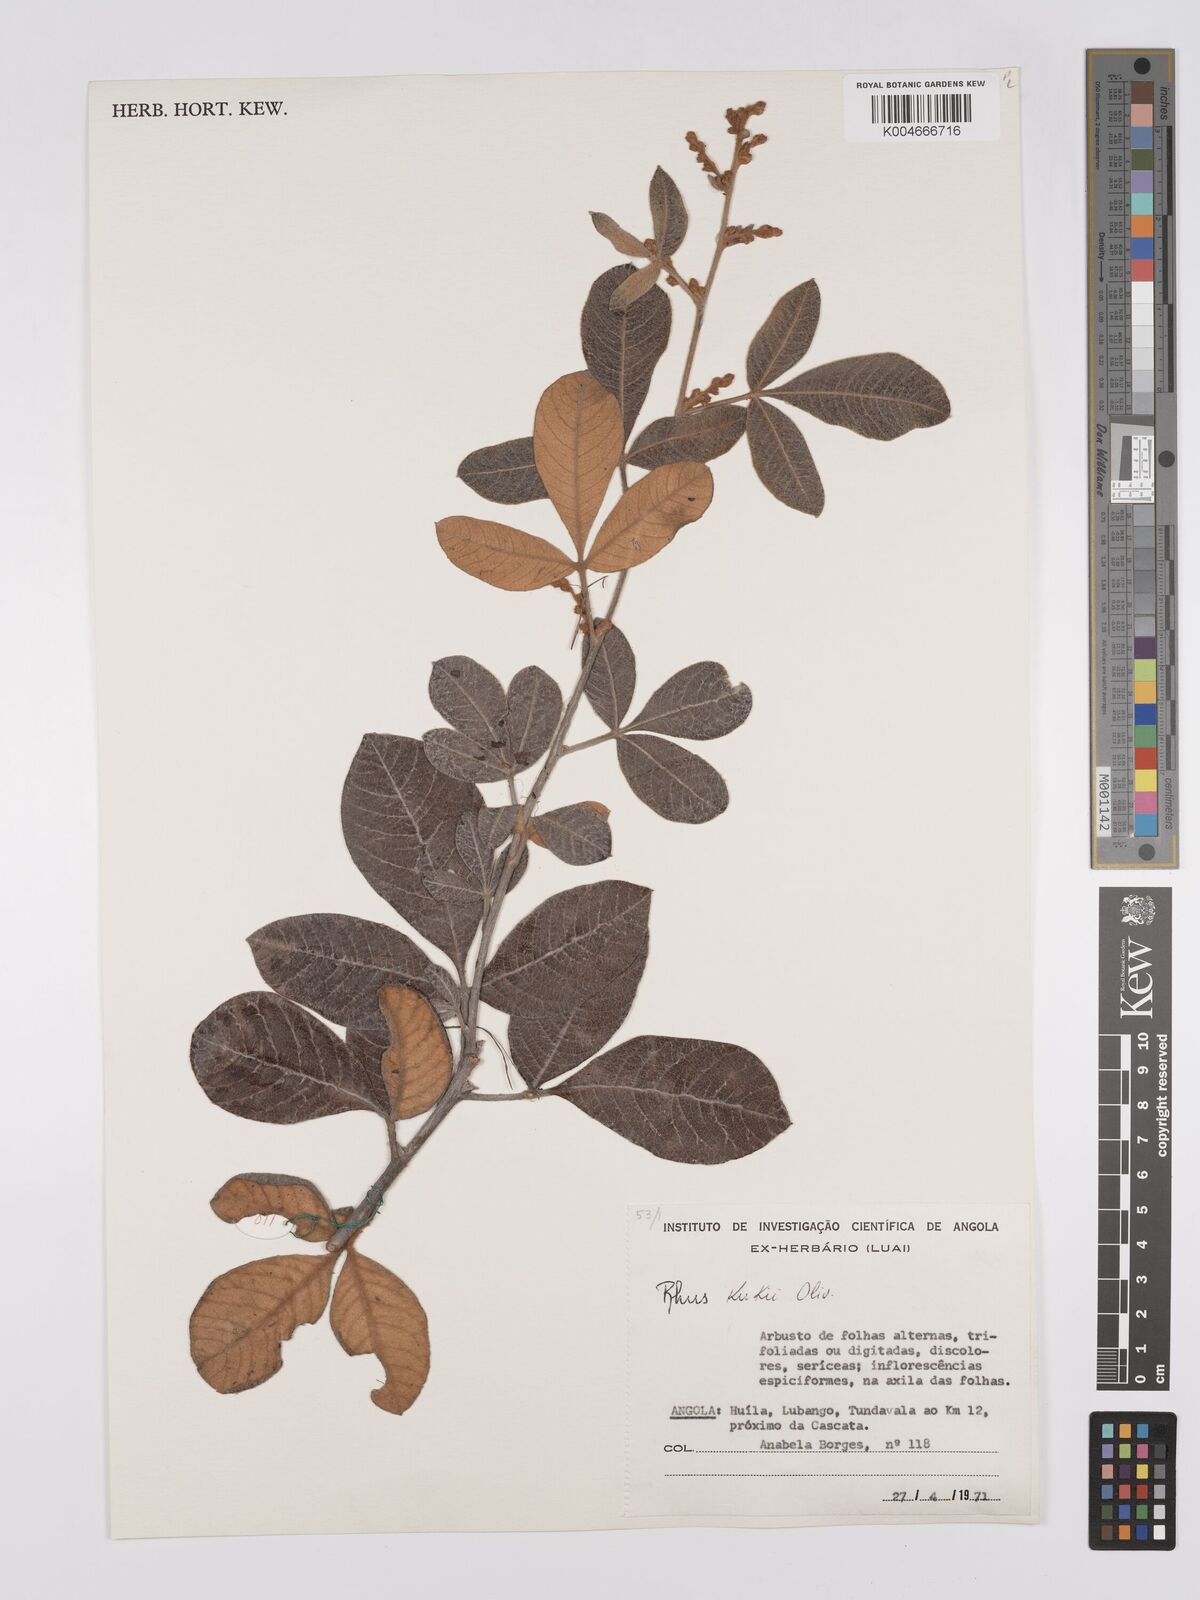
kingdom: Plantae
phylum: Tracheophyta
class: Magnoliopsida
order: Sapindales
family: Anacardiaceae
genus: Searsia
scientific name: Searsia kirkii
